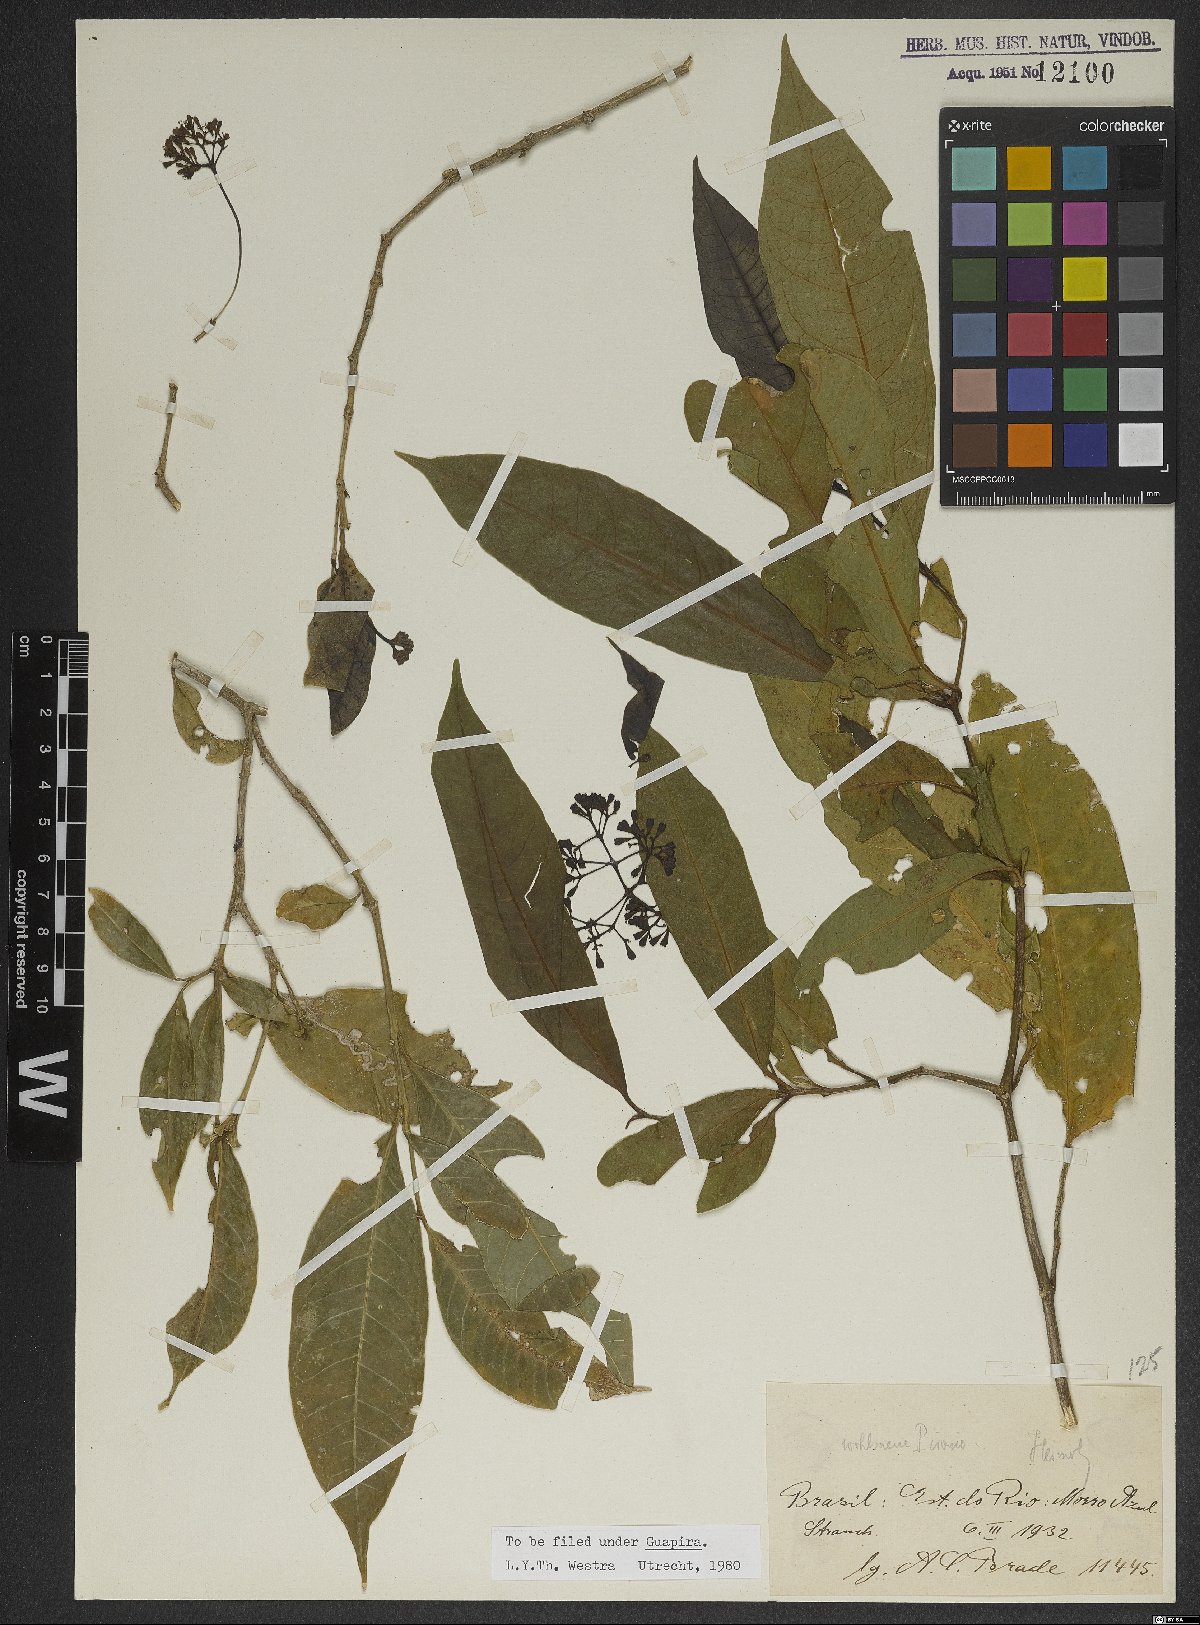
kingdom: Plantae
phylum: Tracheophyta
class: Magnoliopsida
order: Caryophyllales
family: Nyctaginaceae
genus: Guapira
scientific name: Guapira
